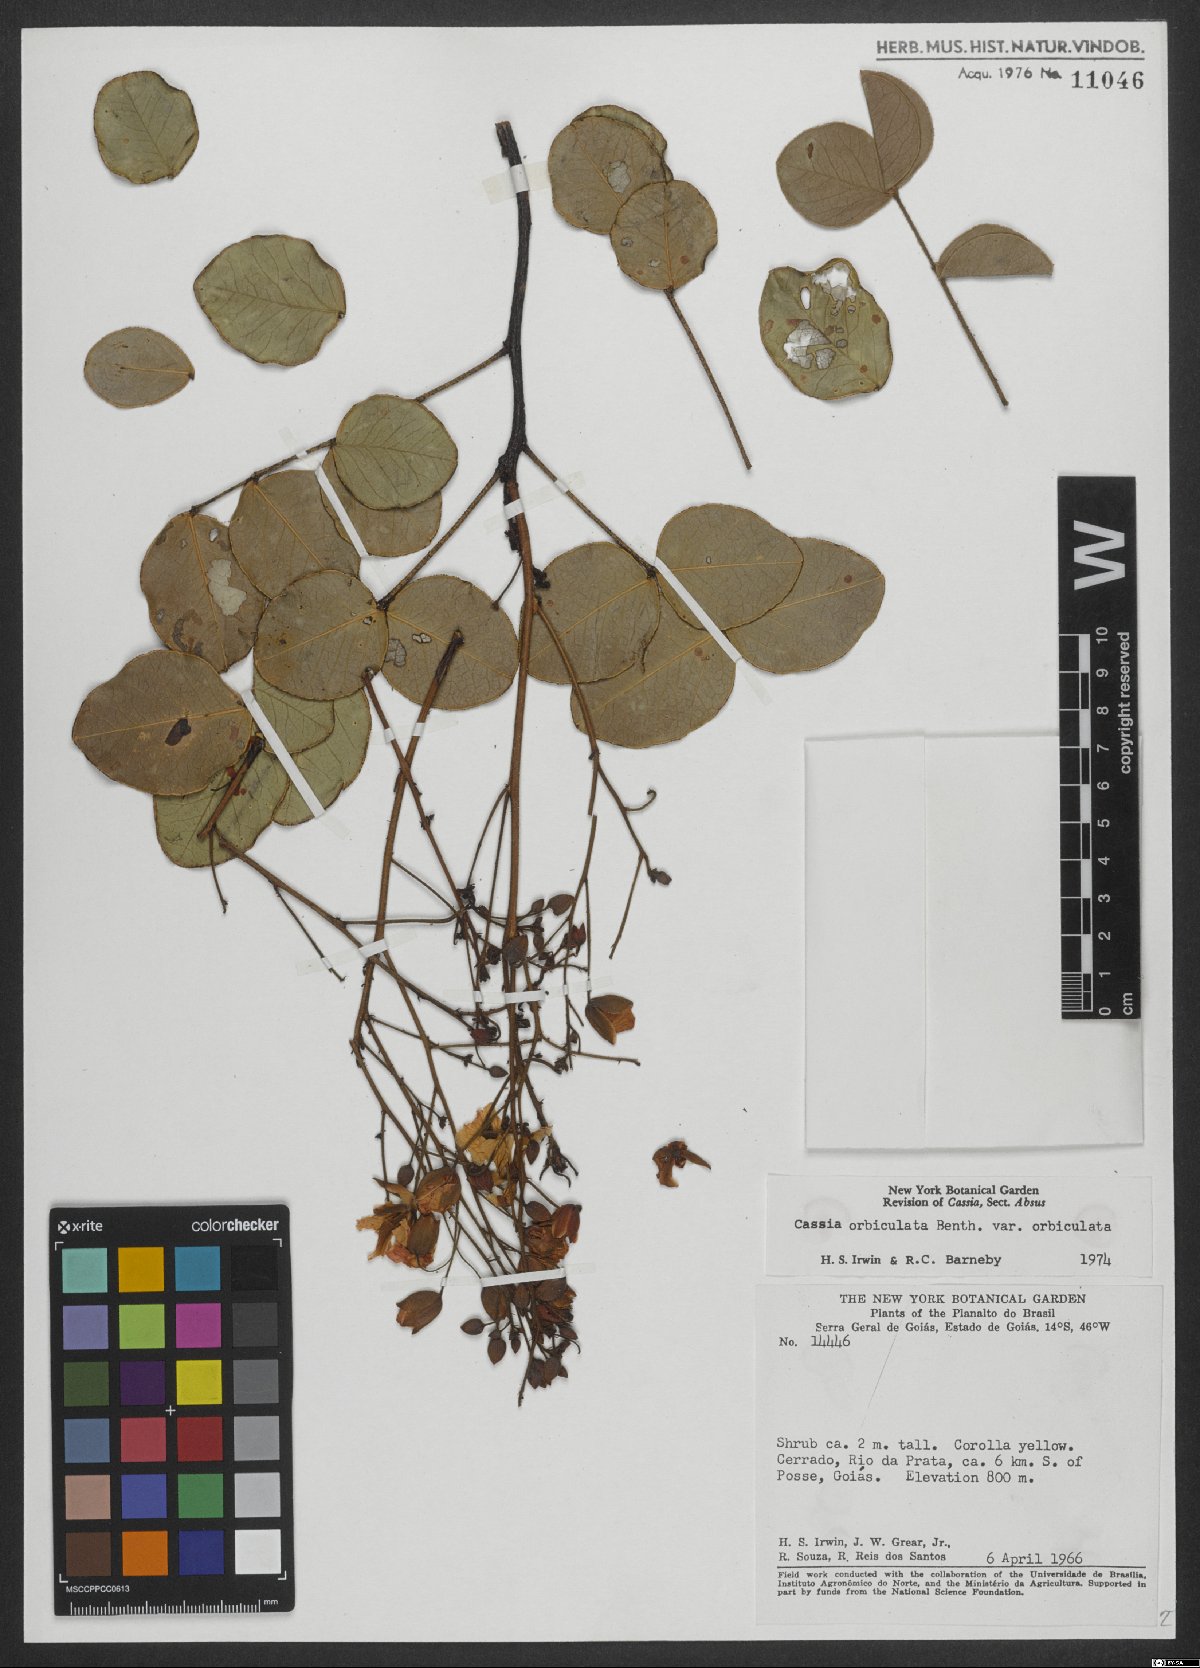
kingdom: Plantae
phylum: Tracheophyta
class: Magnoliopsida
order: Fabales
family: Fabaceae
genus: Chamaecrista
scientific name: Chamaecrista orbiculata
